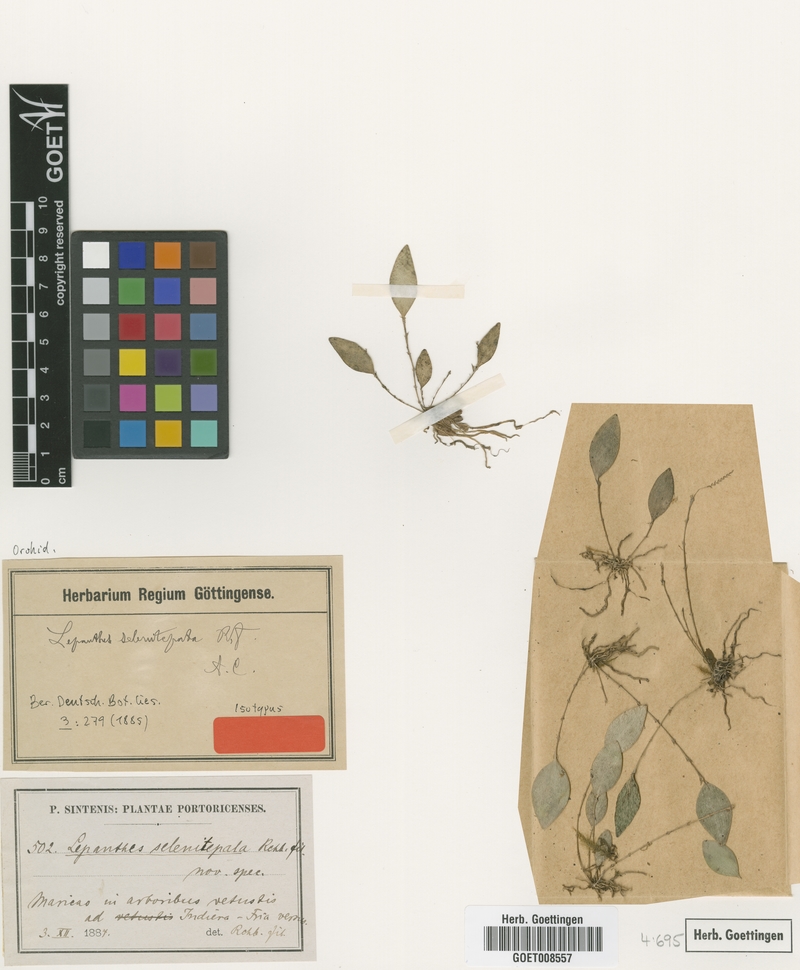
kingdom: Plantae
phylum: Tracheophyta
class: Liliopsida
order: Asparagales
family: Orchidaceae
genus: Lepanthes
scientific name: Lepanthes selenitepala
